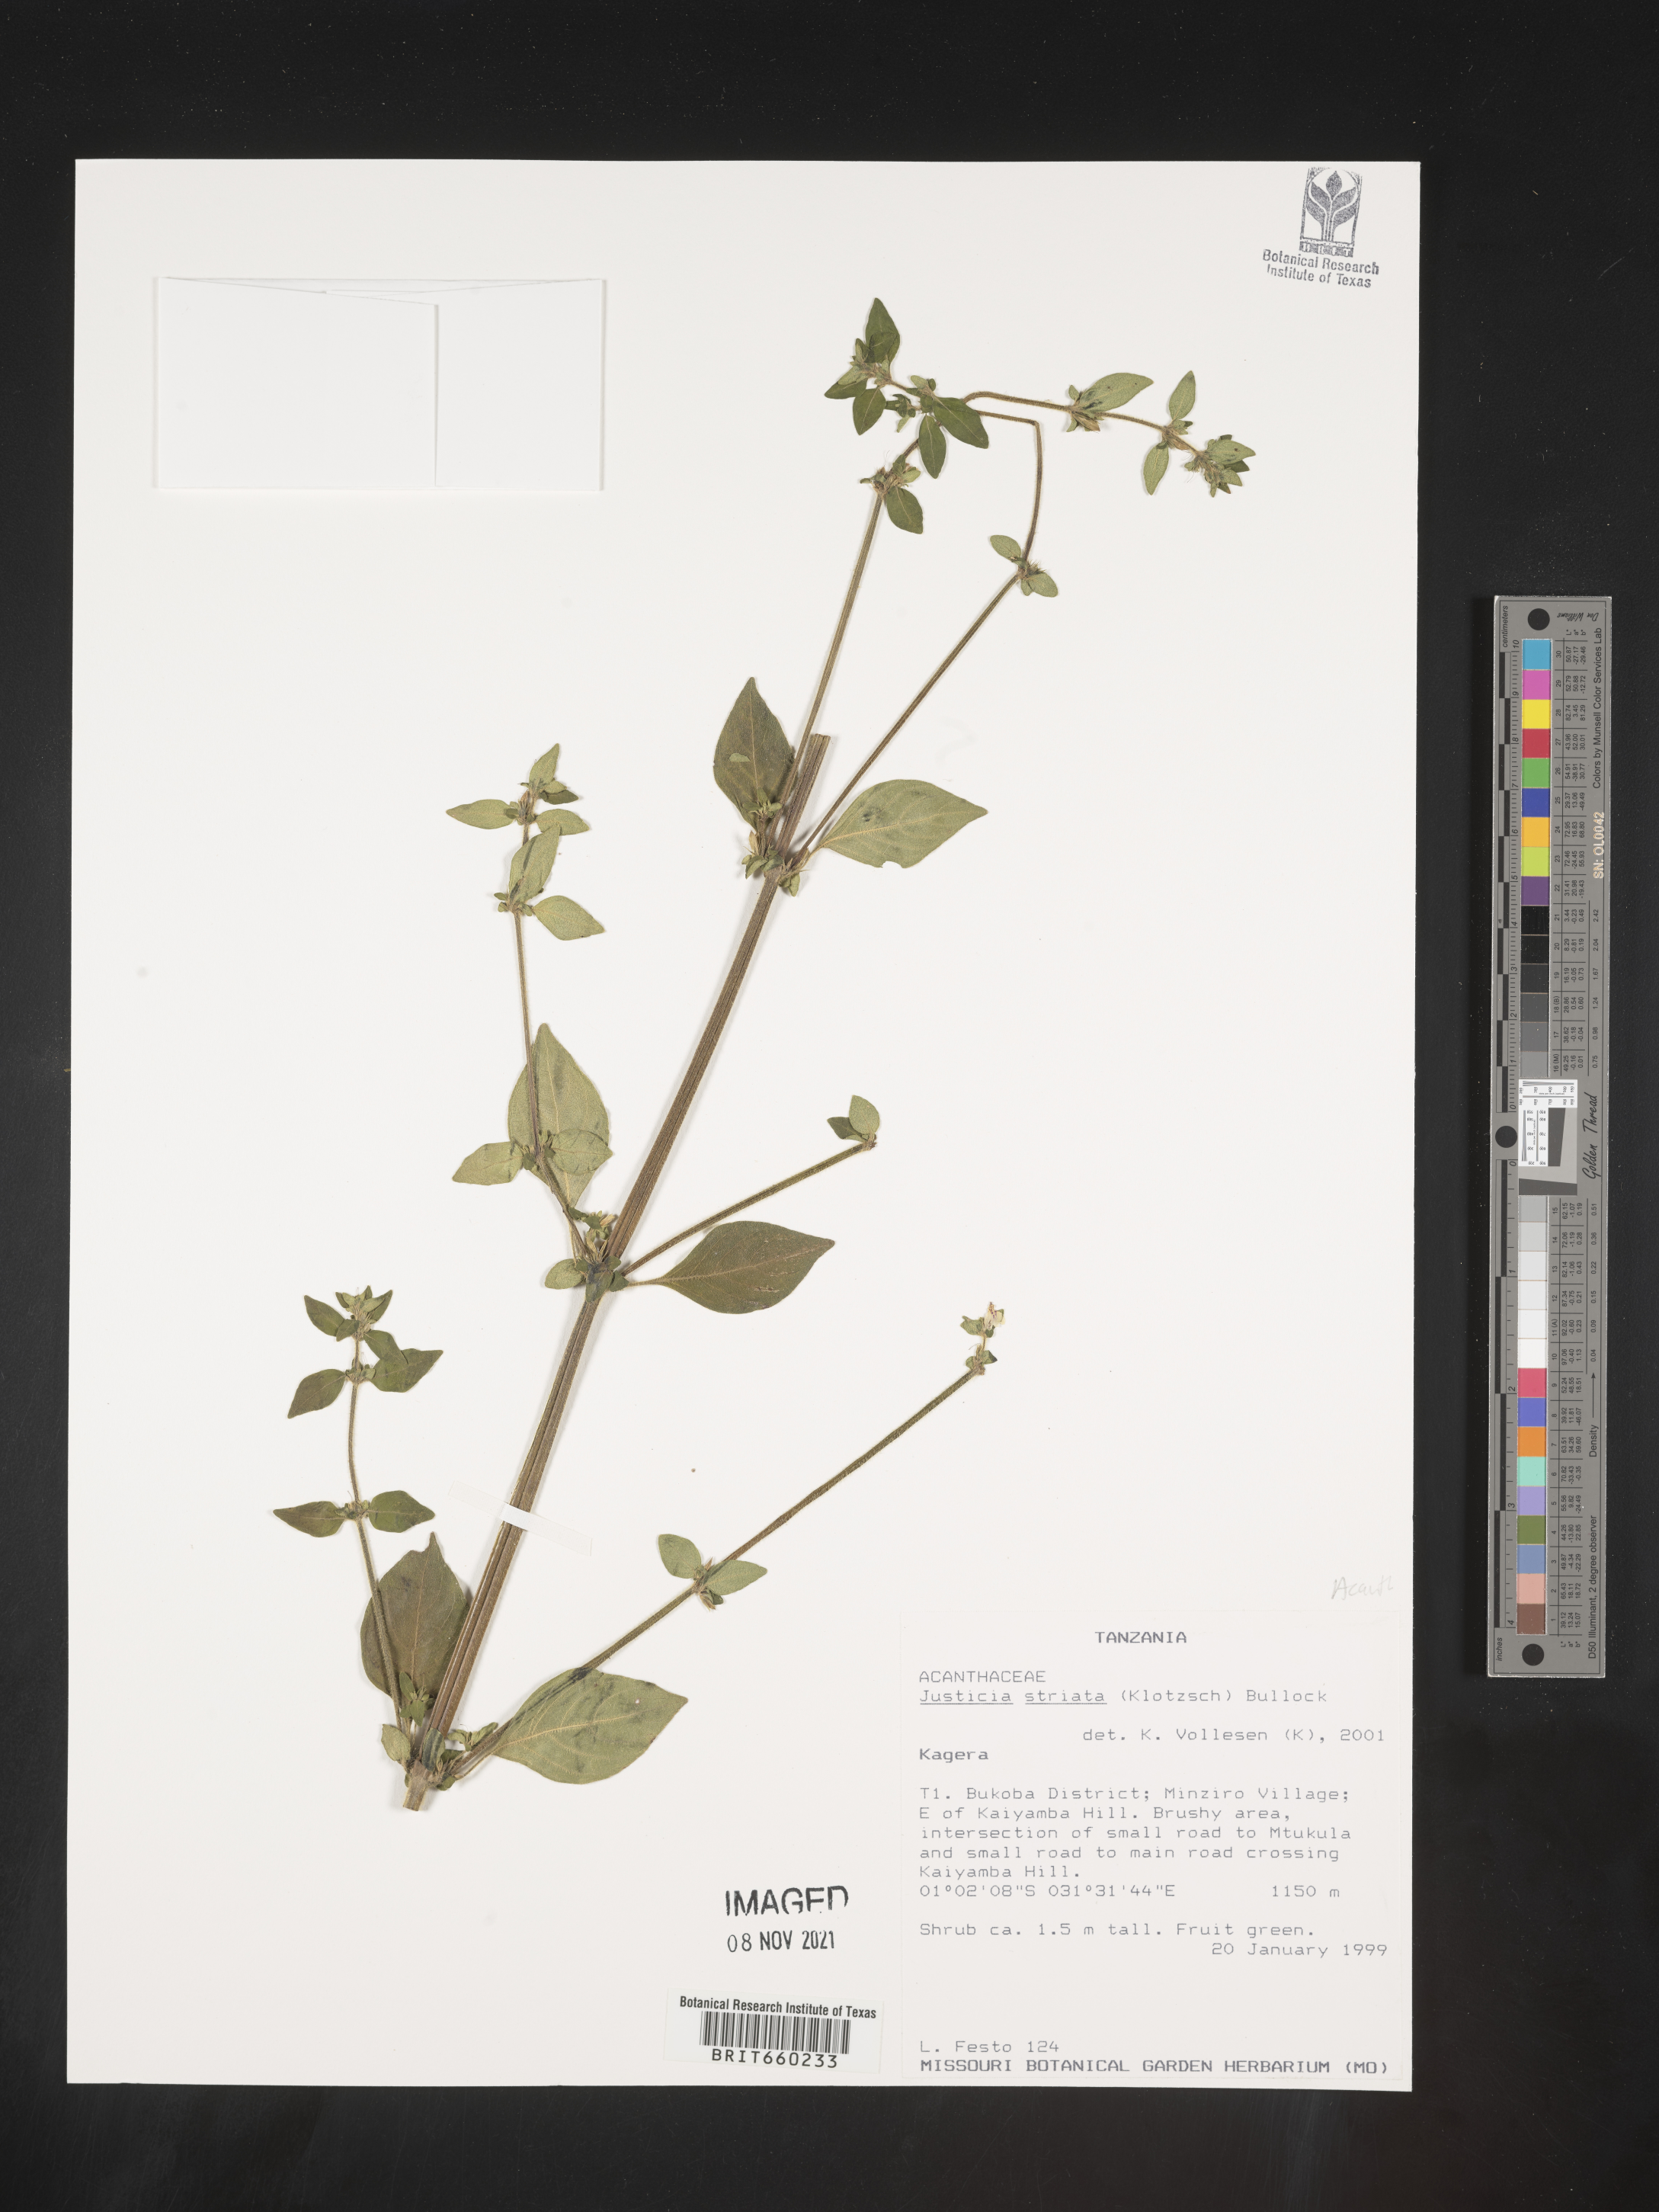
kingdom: Plantae
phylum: Tracheophyta
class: Magnoliopsida
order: Lamiales
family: Acanthaceae
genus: Justicia
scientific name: Justicia
